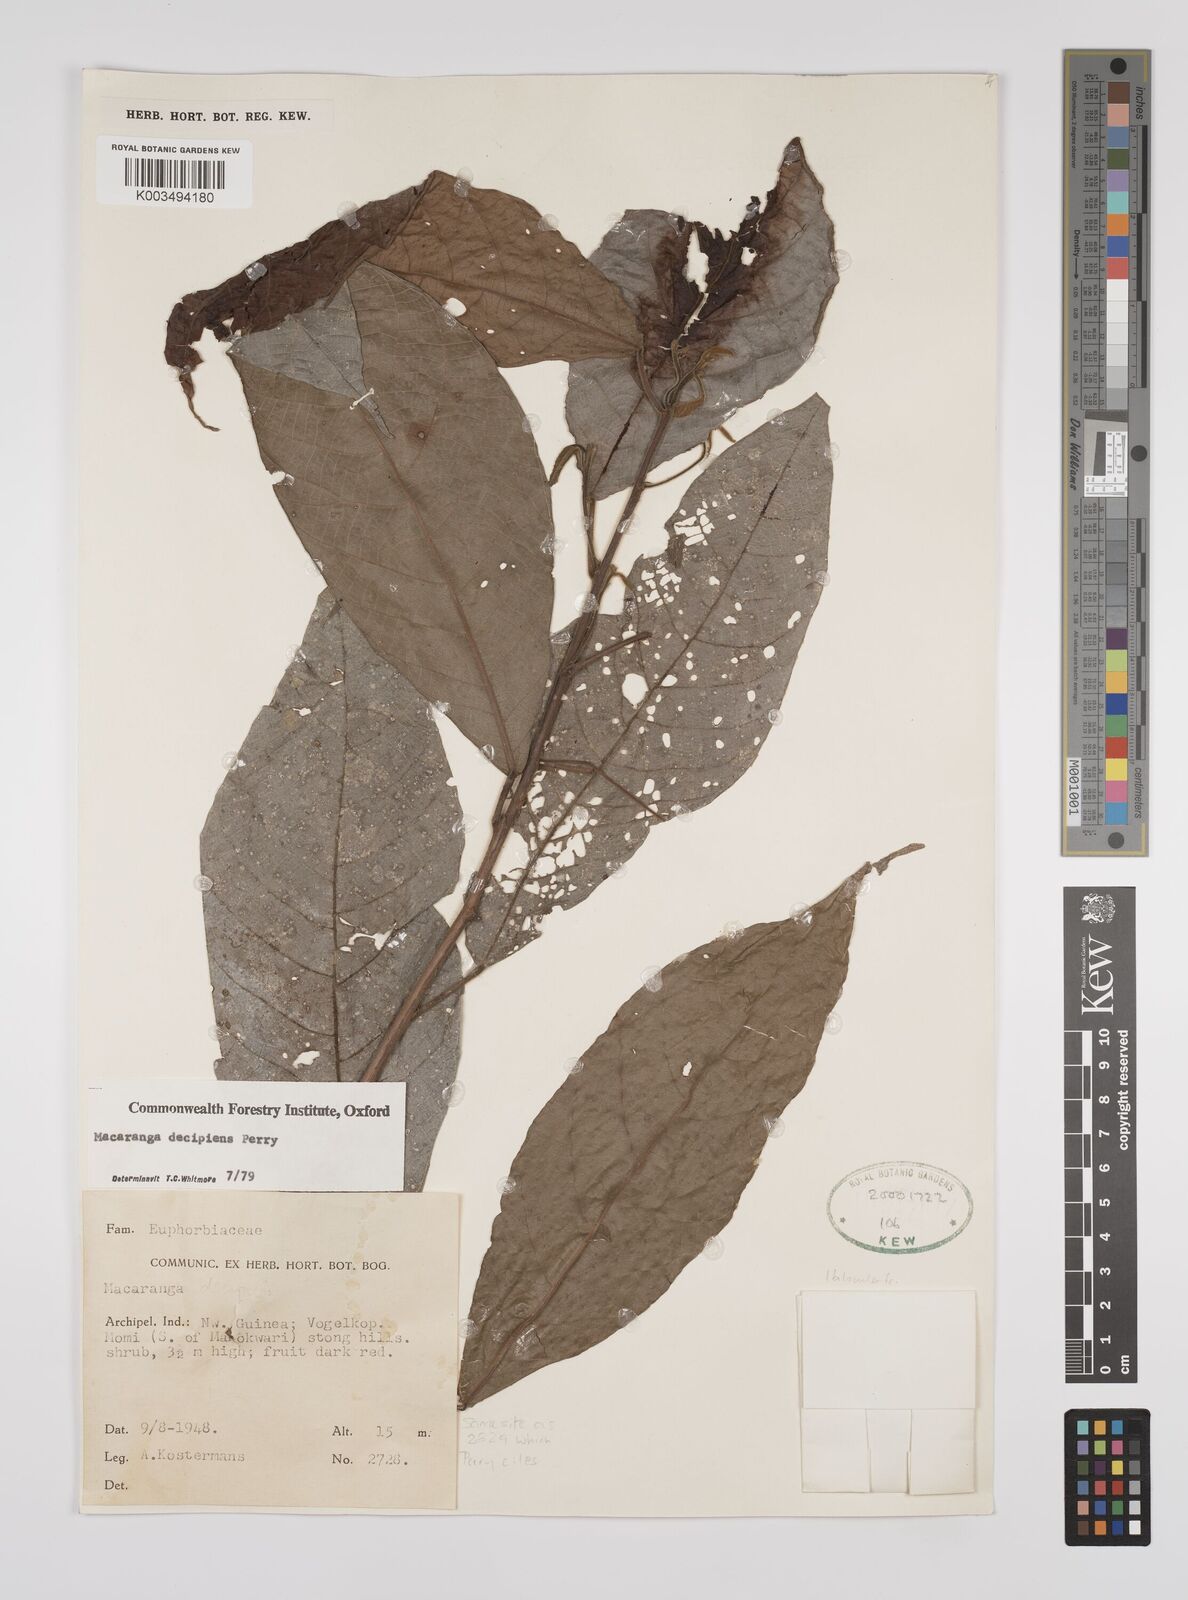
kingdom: Plantae
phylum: Tracheophyta
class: Magnoliopsida
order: Malpighiales
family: Euphorbiaceae
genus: Macaranga
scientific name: Macaranga decipiens
